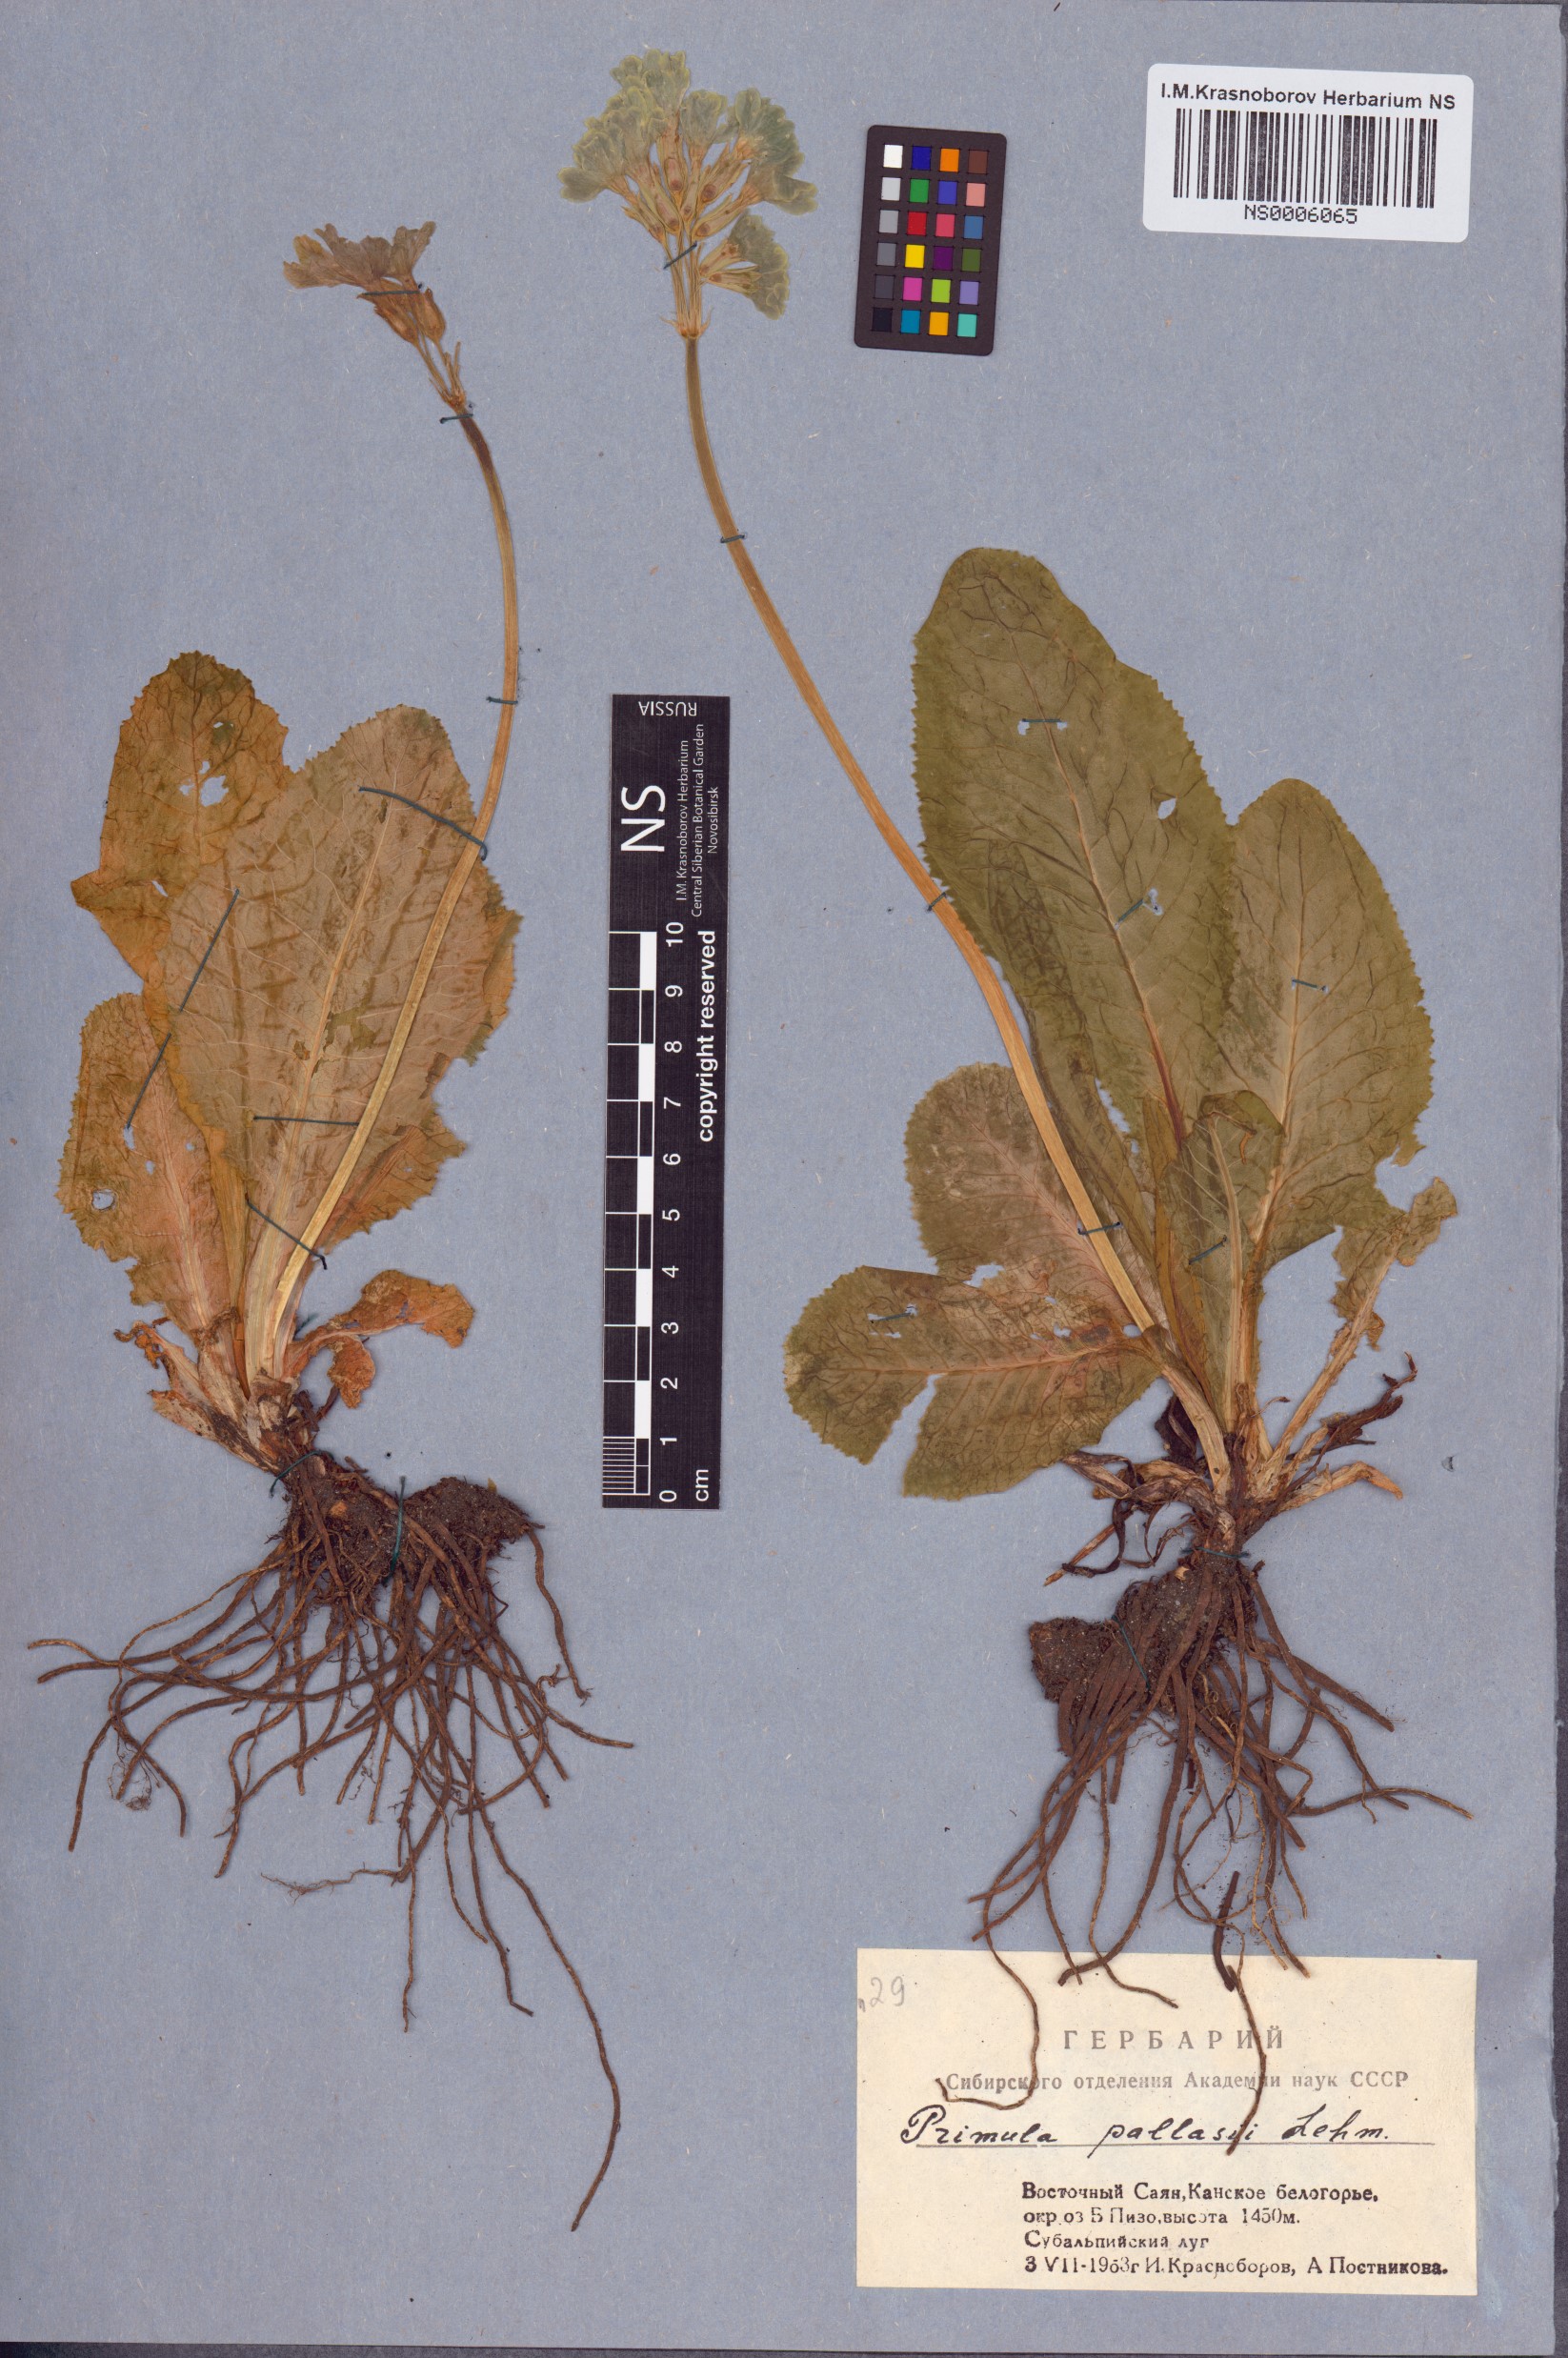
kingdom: Plantae
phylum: Tracheophyta
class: Magnoliopsida
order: Ericales
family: Primulaceae
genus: Primula
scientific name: Primula elatior
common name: Oxlip
